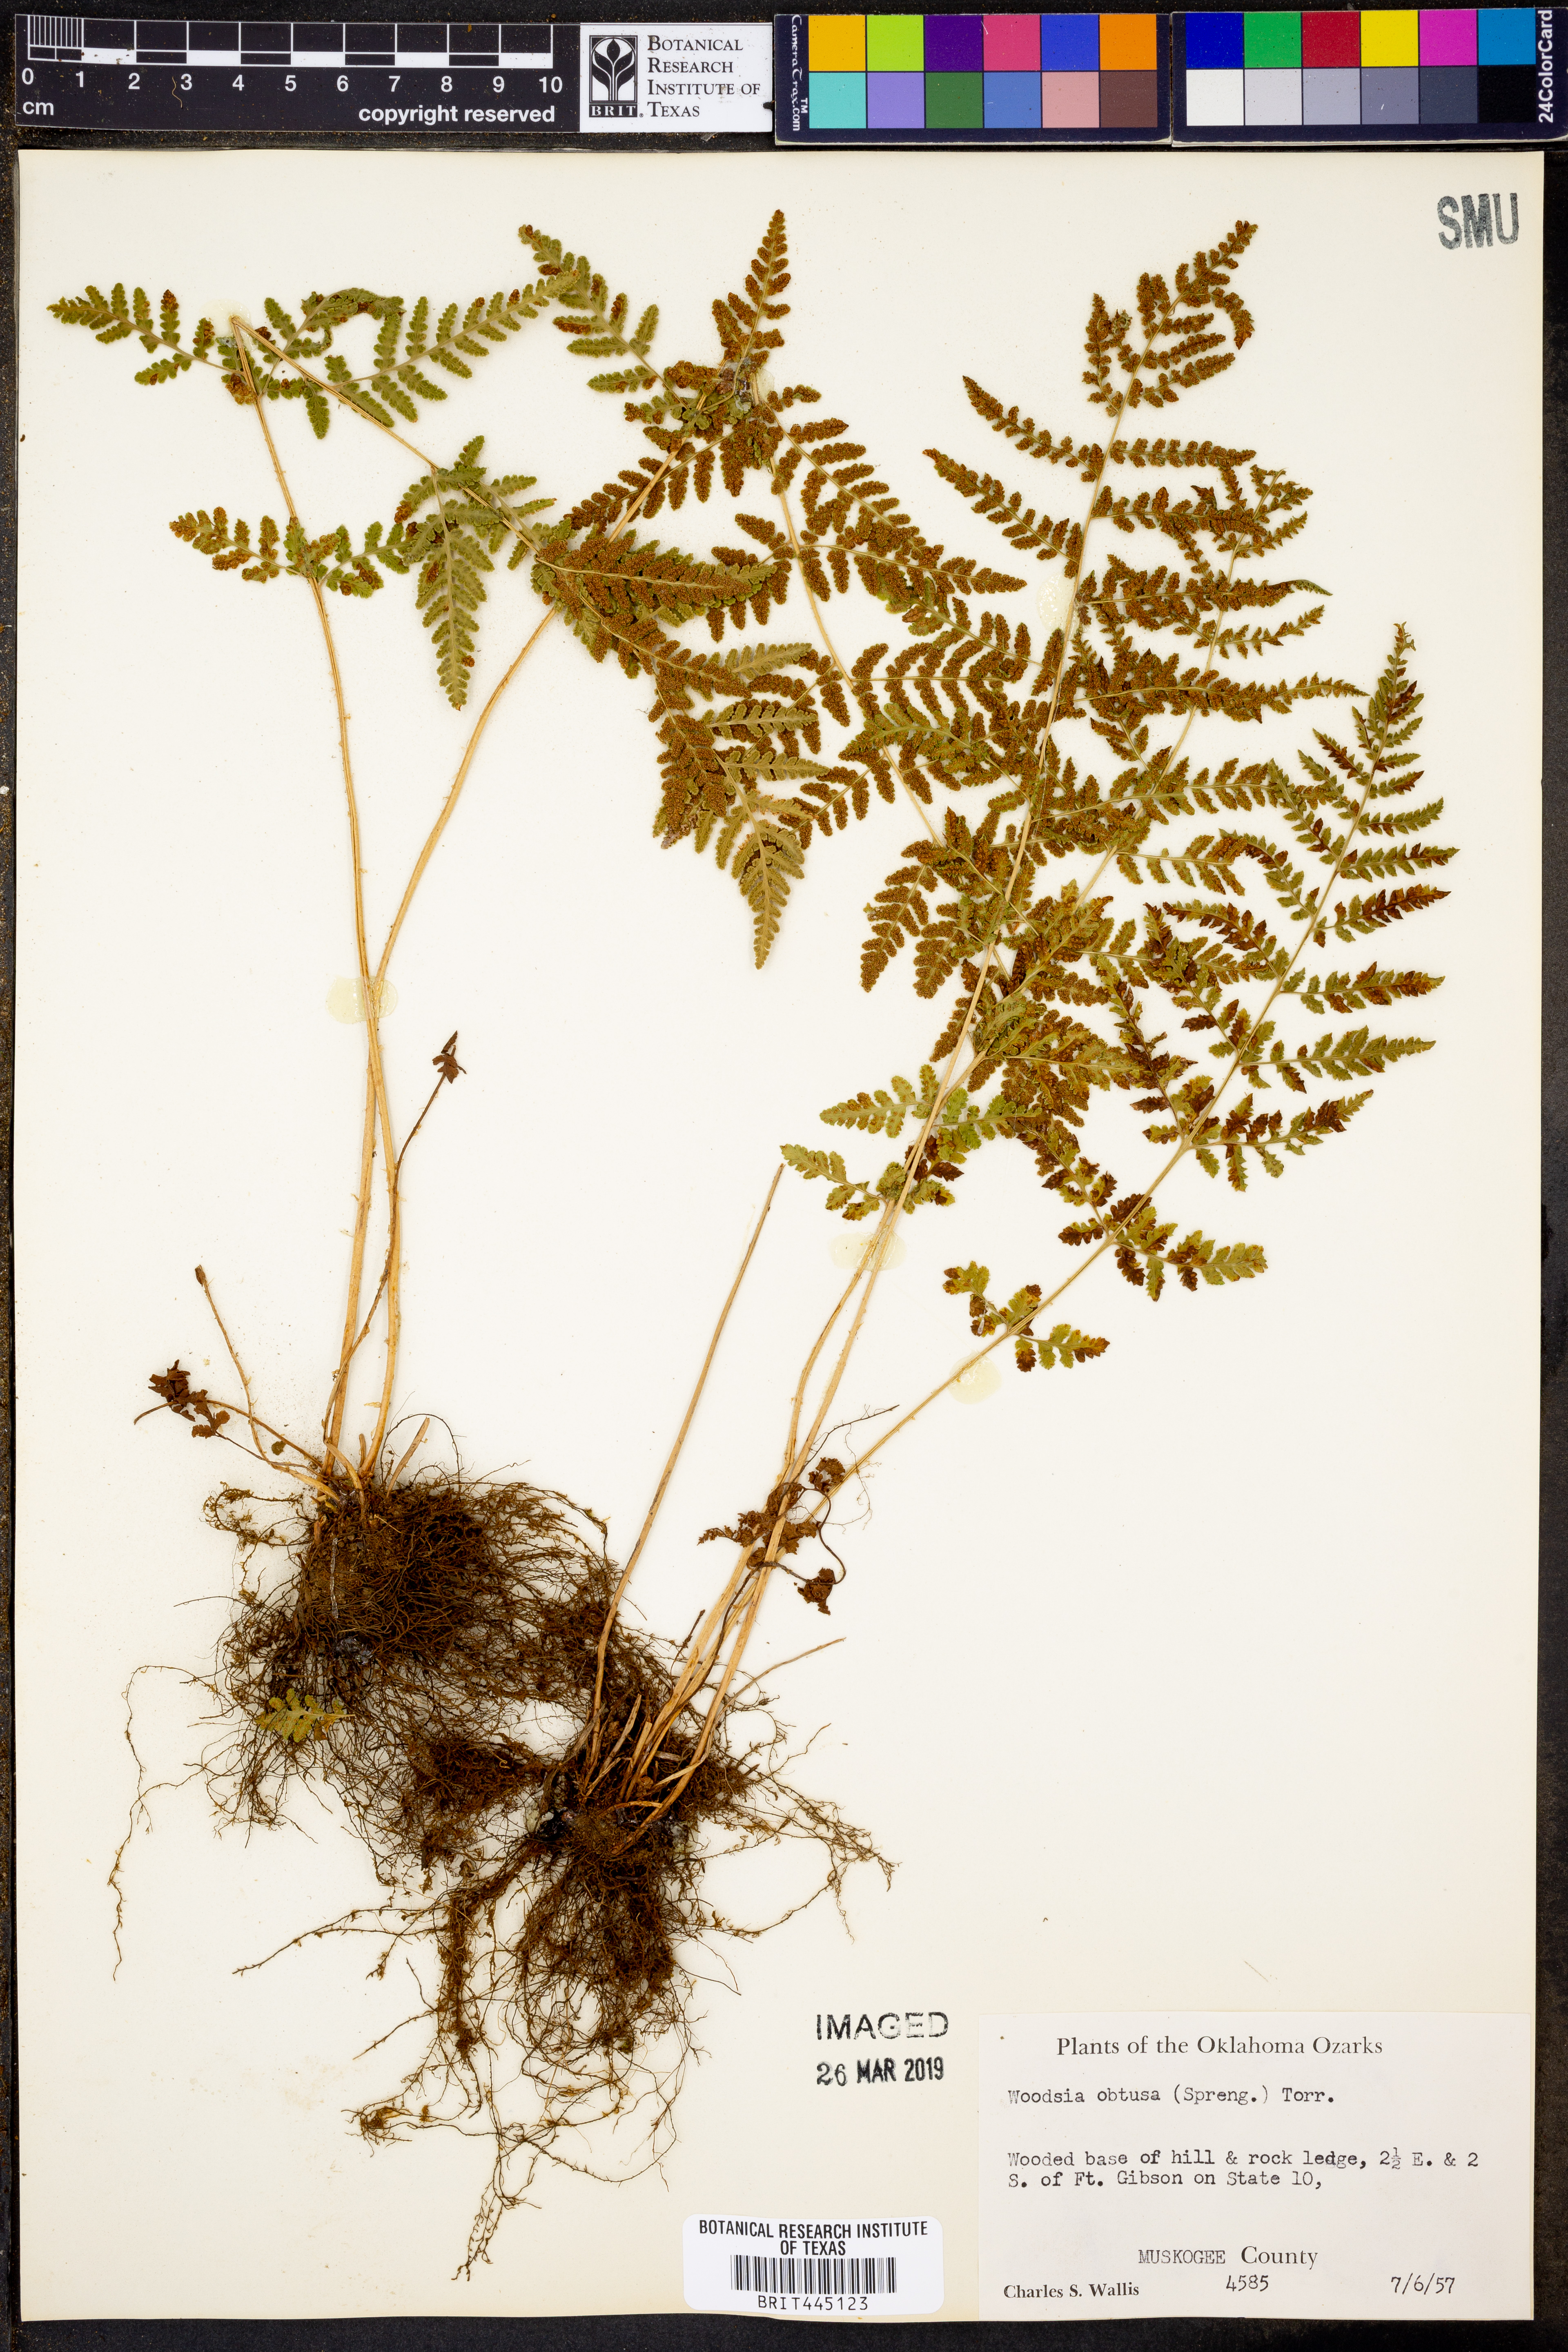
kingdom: Plantae
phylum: Tracheophyta
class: Polypodiopsida
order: Polypodiales
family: Woodsiaceae
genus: Physematium
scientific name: Physematium obtusum
